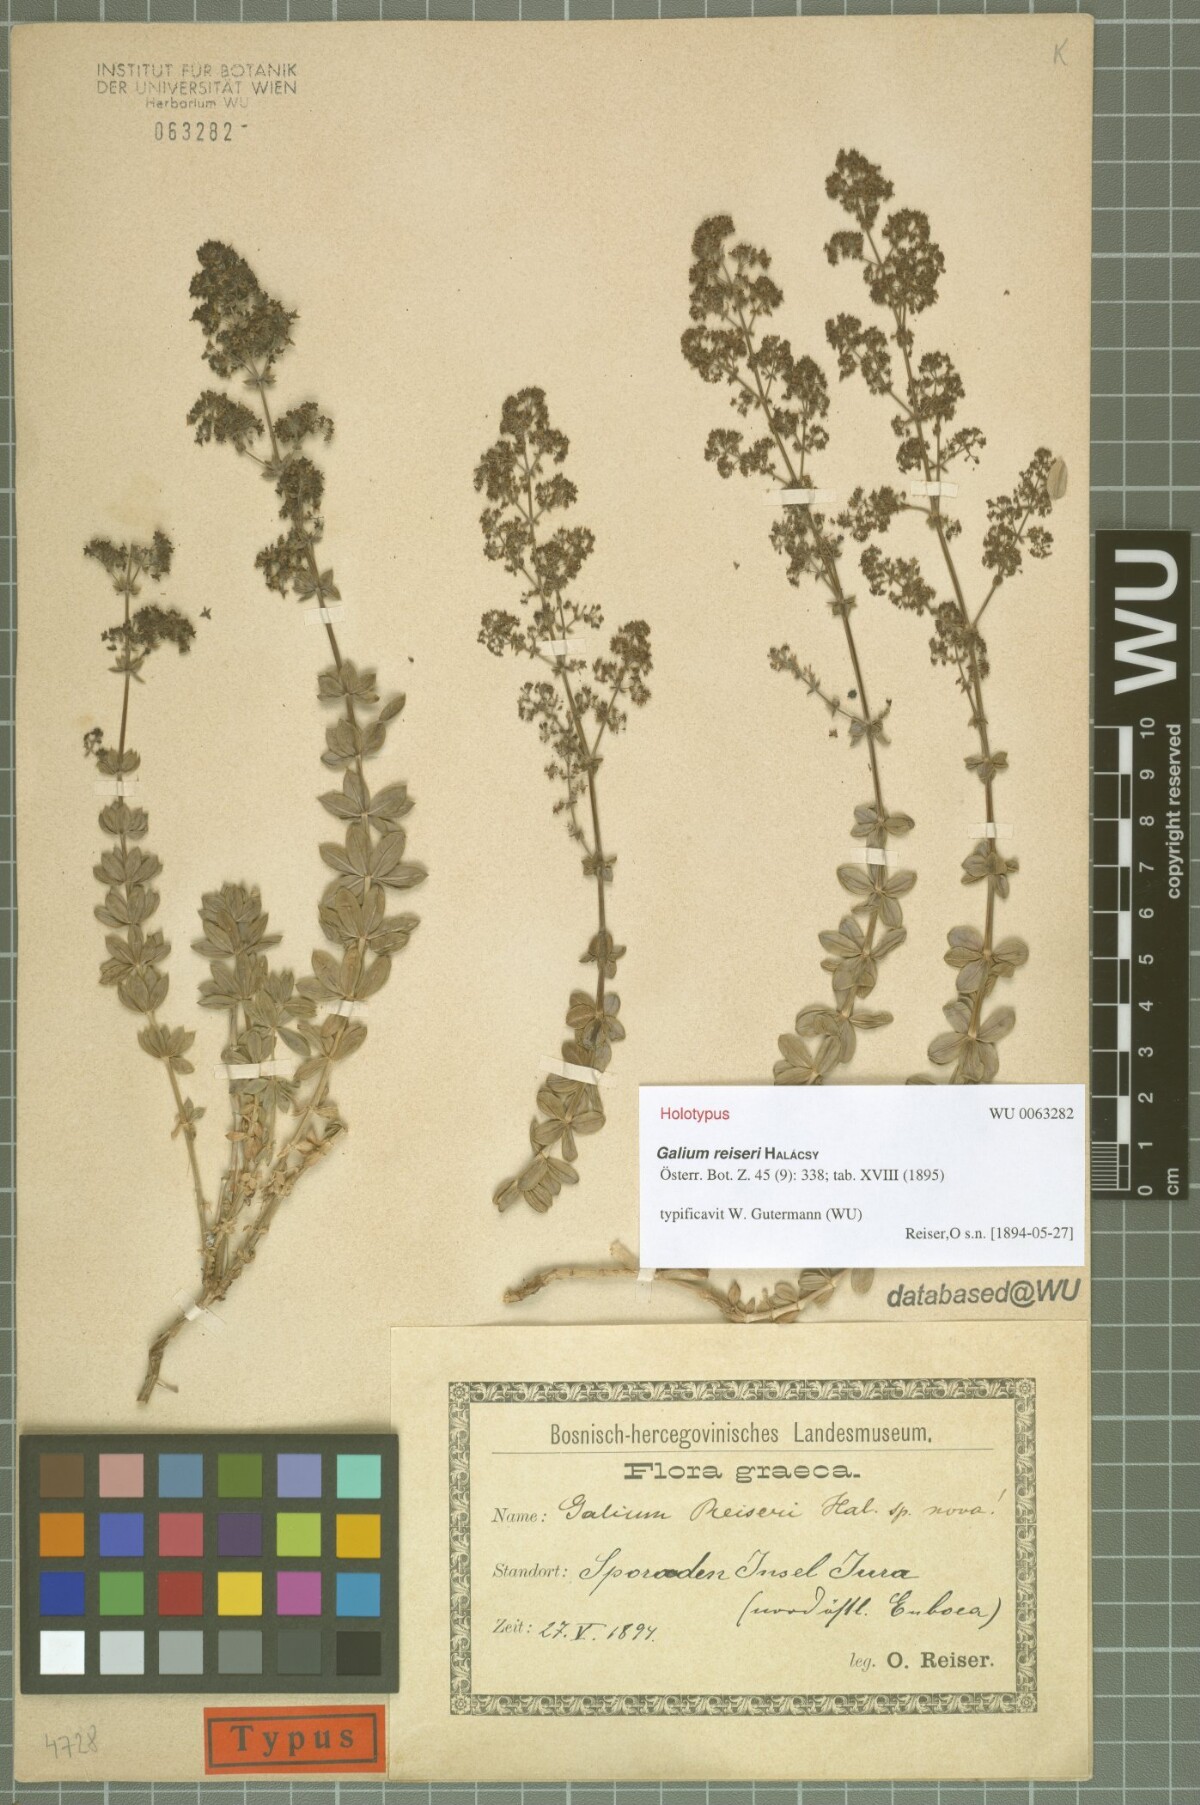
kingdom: Plantae
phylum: Tracheophyta
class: Magnoliopsida
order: Gentianales
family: Rubiaceae
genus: Galium
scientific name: Galium reiseri
